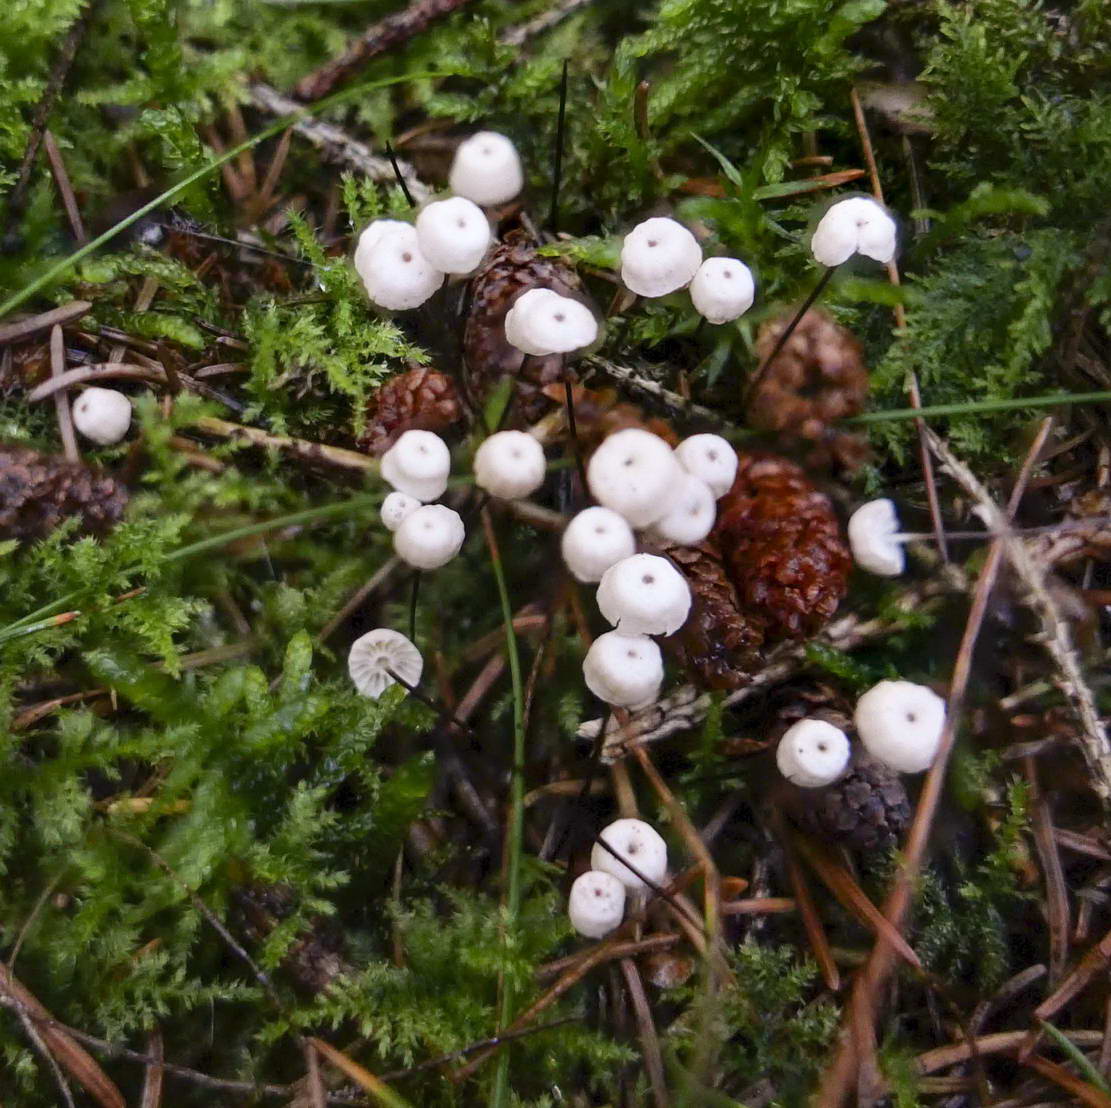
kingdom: Fungi
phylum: Basidiomycota
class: Agaricomycetes
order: Agaricales
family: Marasmiaceae
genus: Marasmius
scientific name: Marasmius wettsteinii
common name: Wettsteins bruskhat
